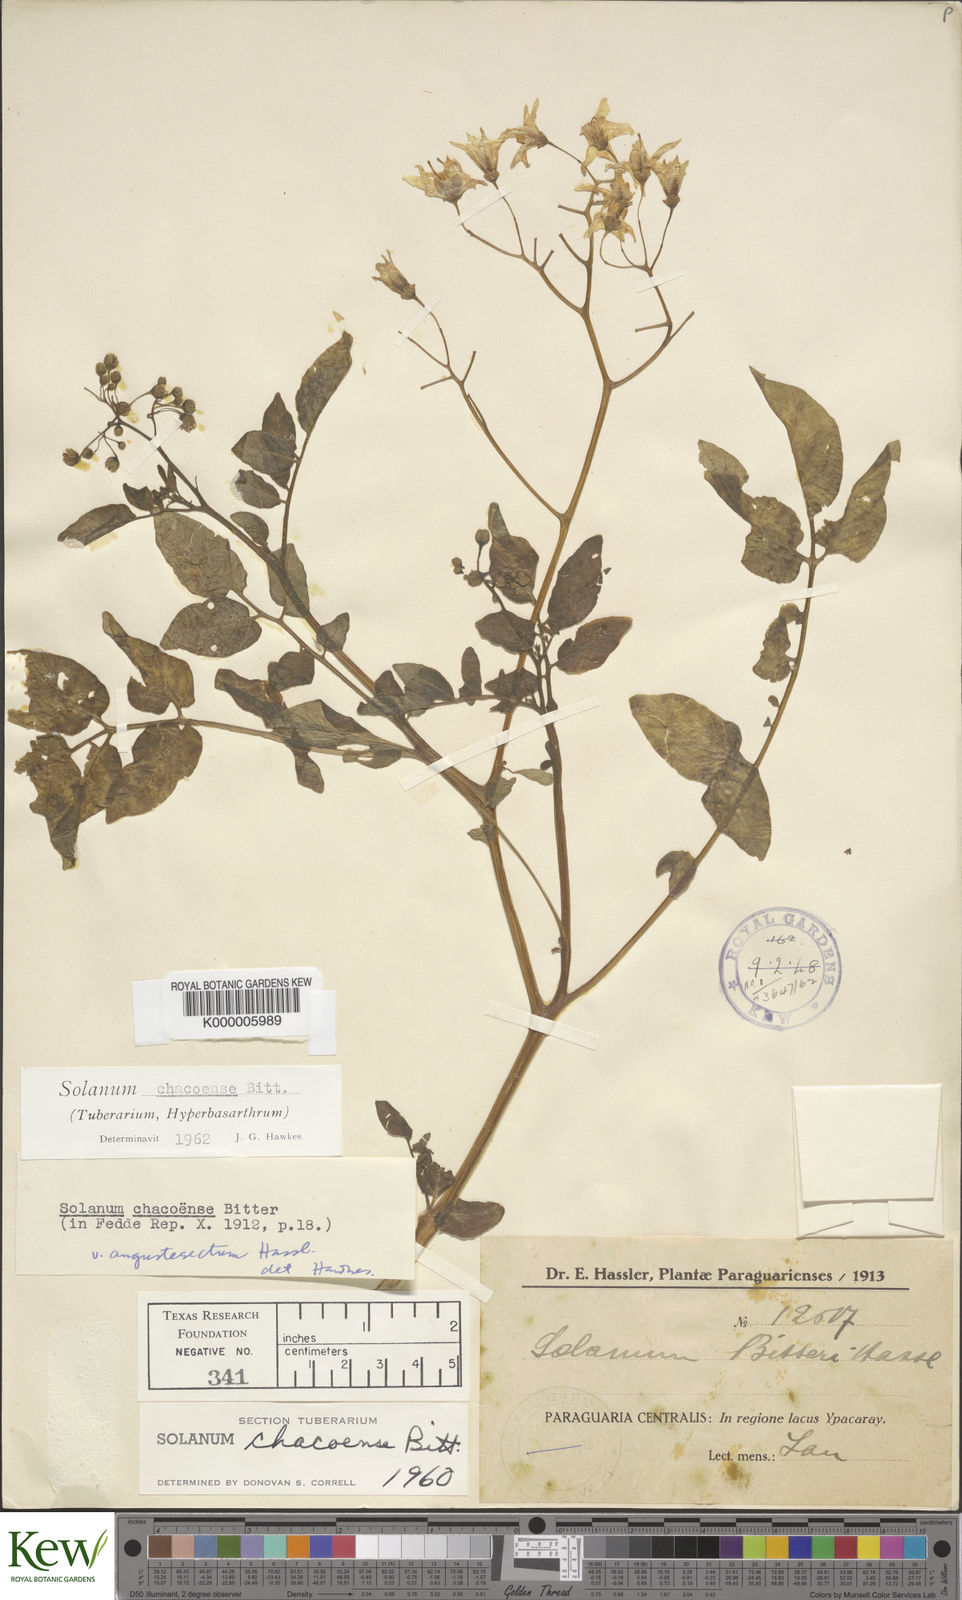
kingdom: Plantae
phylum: Tracheophyta
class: Magnoliopsida
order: Solanales
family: Solanaceae
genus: Solanum
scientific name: Solanum chacoense
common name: Chaco potato
